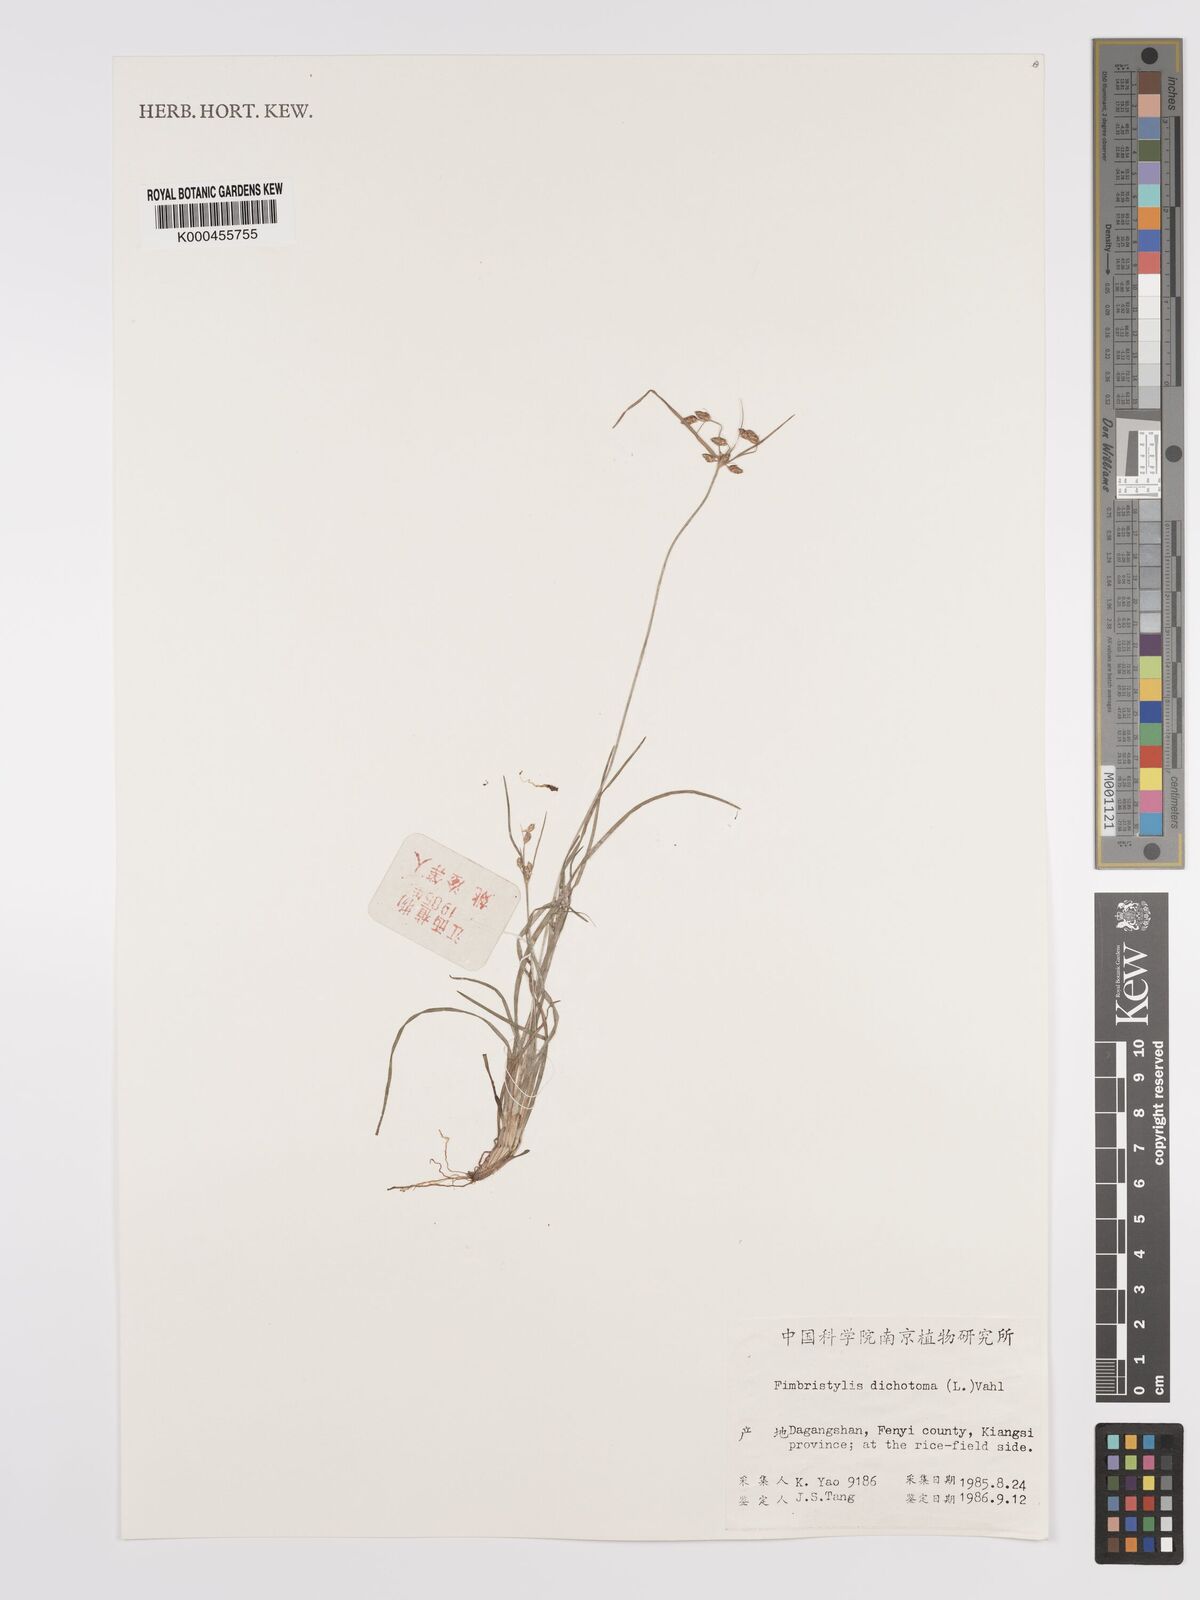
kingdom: Plantae
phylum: Tracheophyta
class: Liliopsida
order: Poales
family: Cyperaceae
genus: Fimbristylis
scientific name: Fimbristylis dichotoma
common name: Forked fimbry
